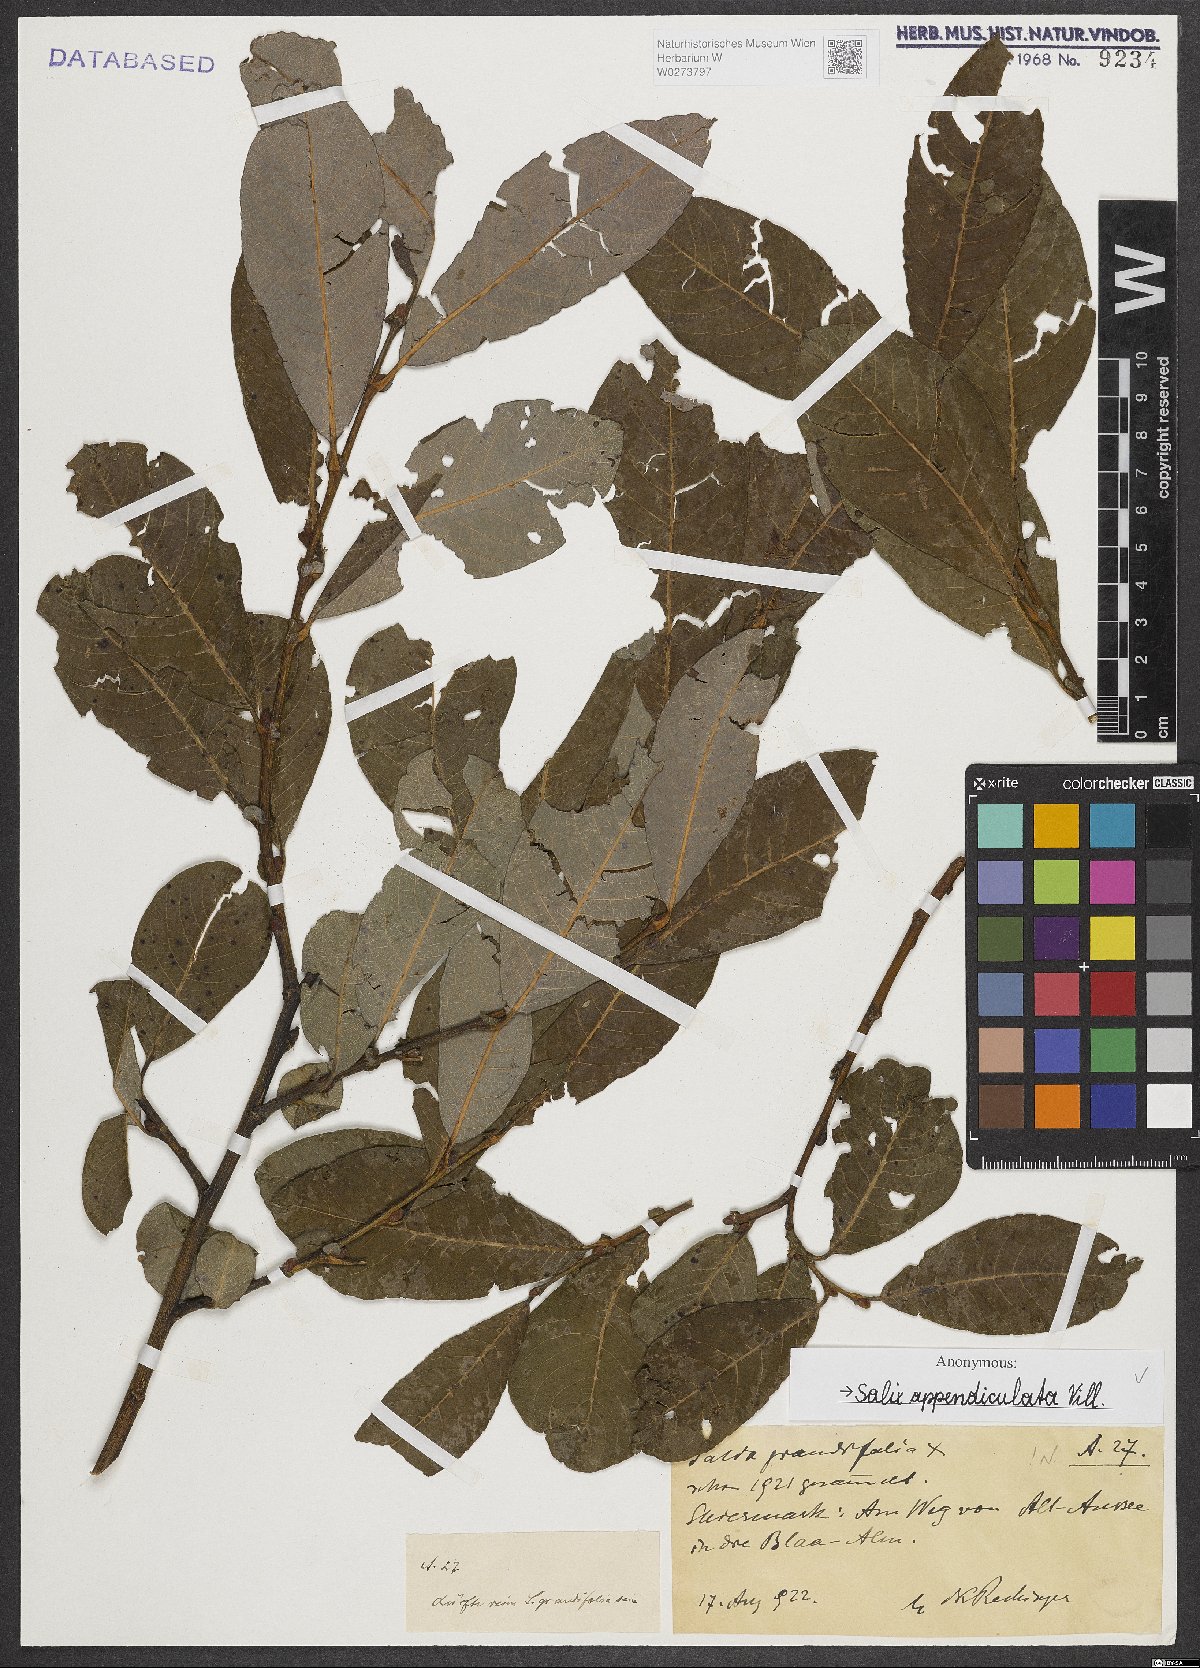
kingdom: Plantae
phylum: Tracheophyta
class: Magnoliopsida
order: Malpighiales
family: Salicaceae
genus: Salix
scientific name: Salix appendiculata
